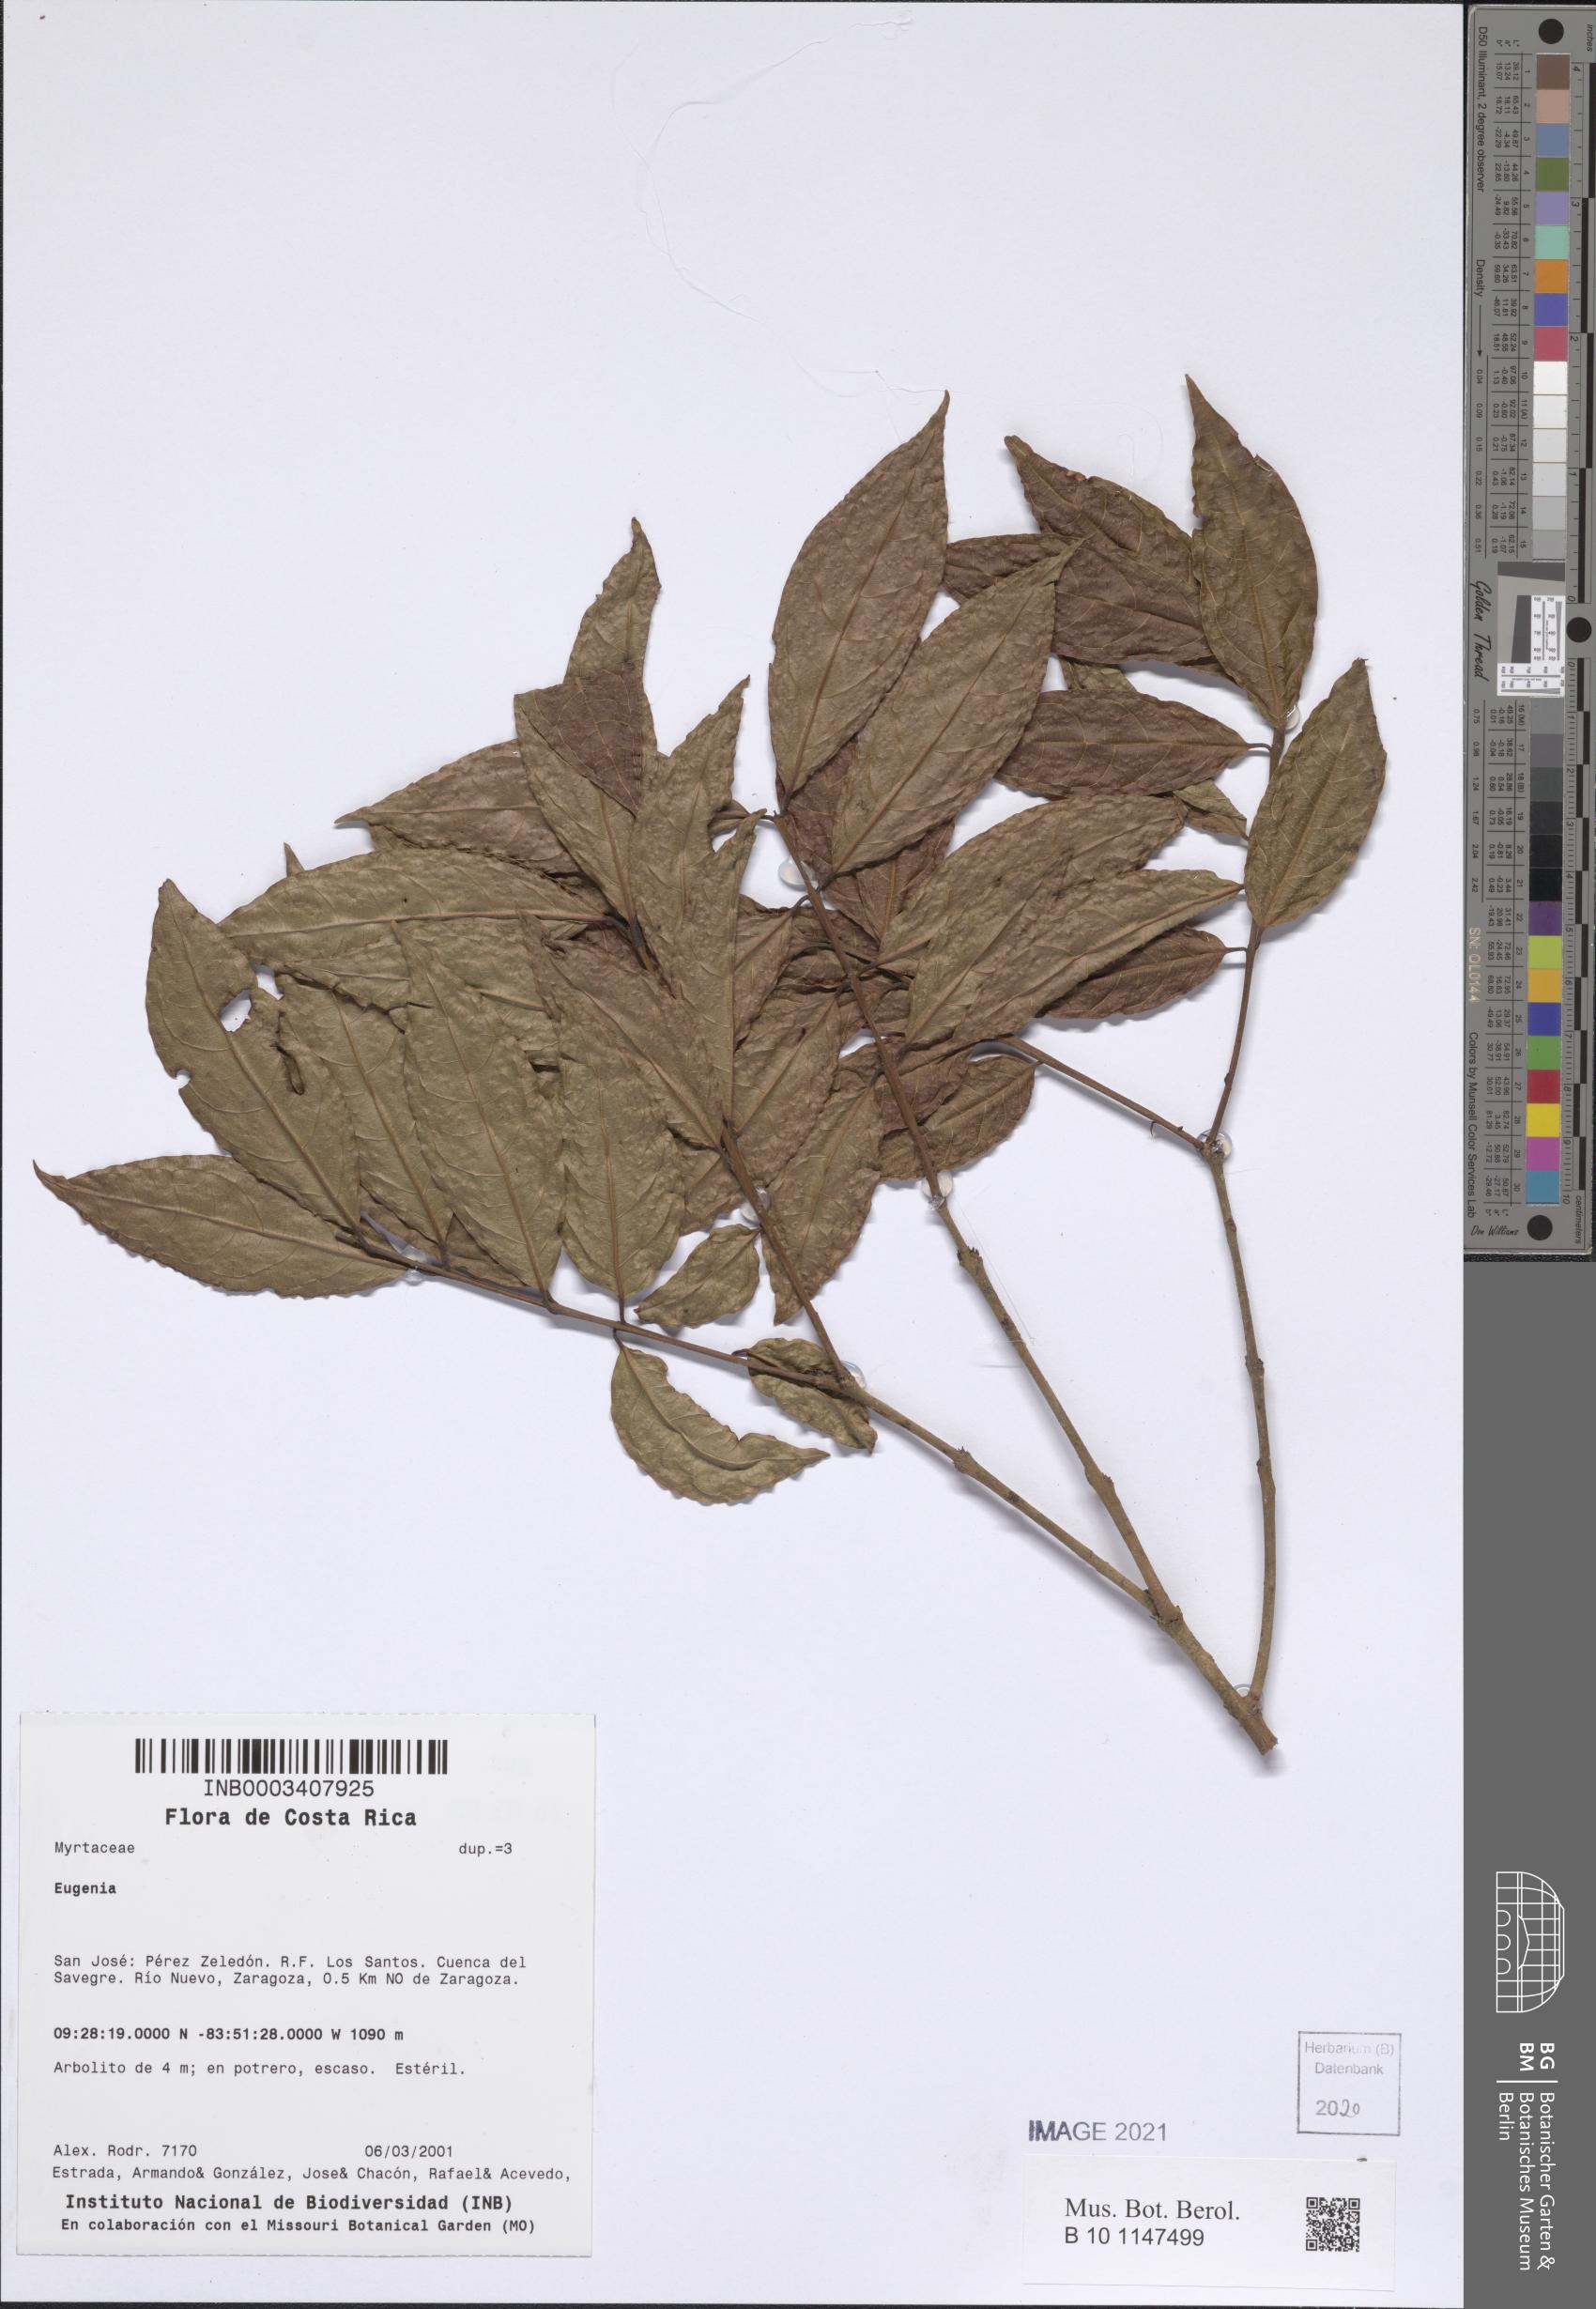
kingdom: Plantae
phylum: Tracheophyta
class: Magnoliopsida
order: Myrtales
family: Myrtaceae
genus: Eugenia
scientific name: Eugenia
